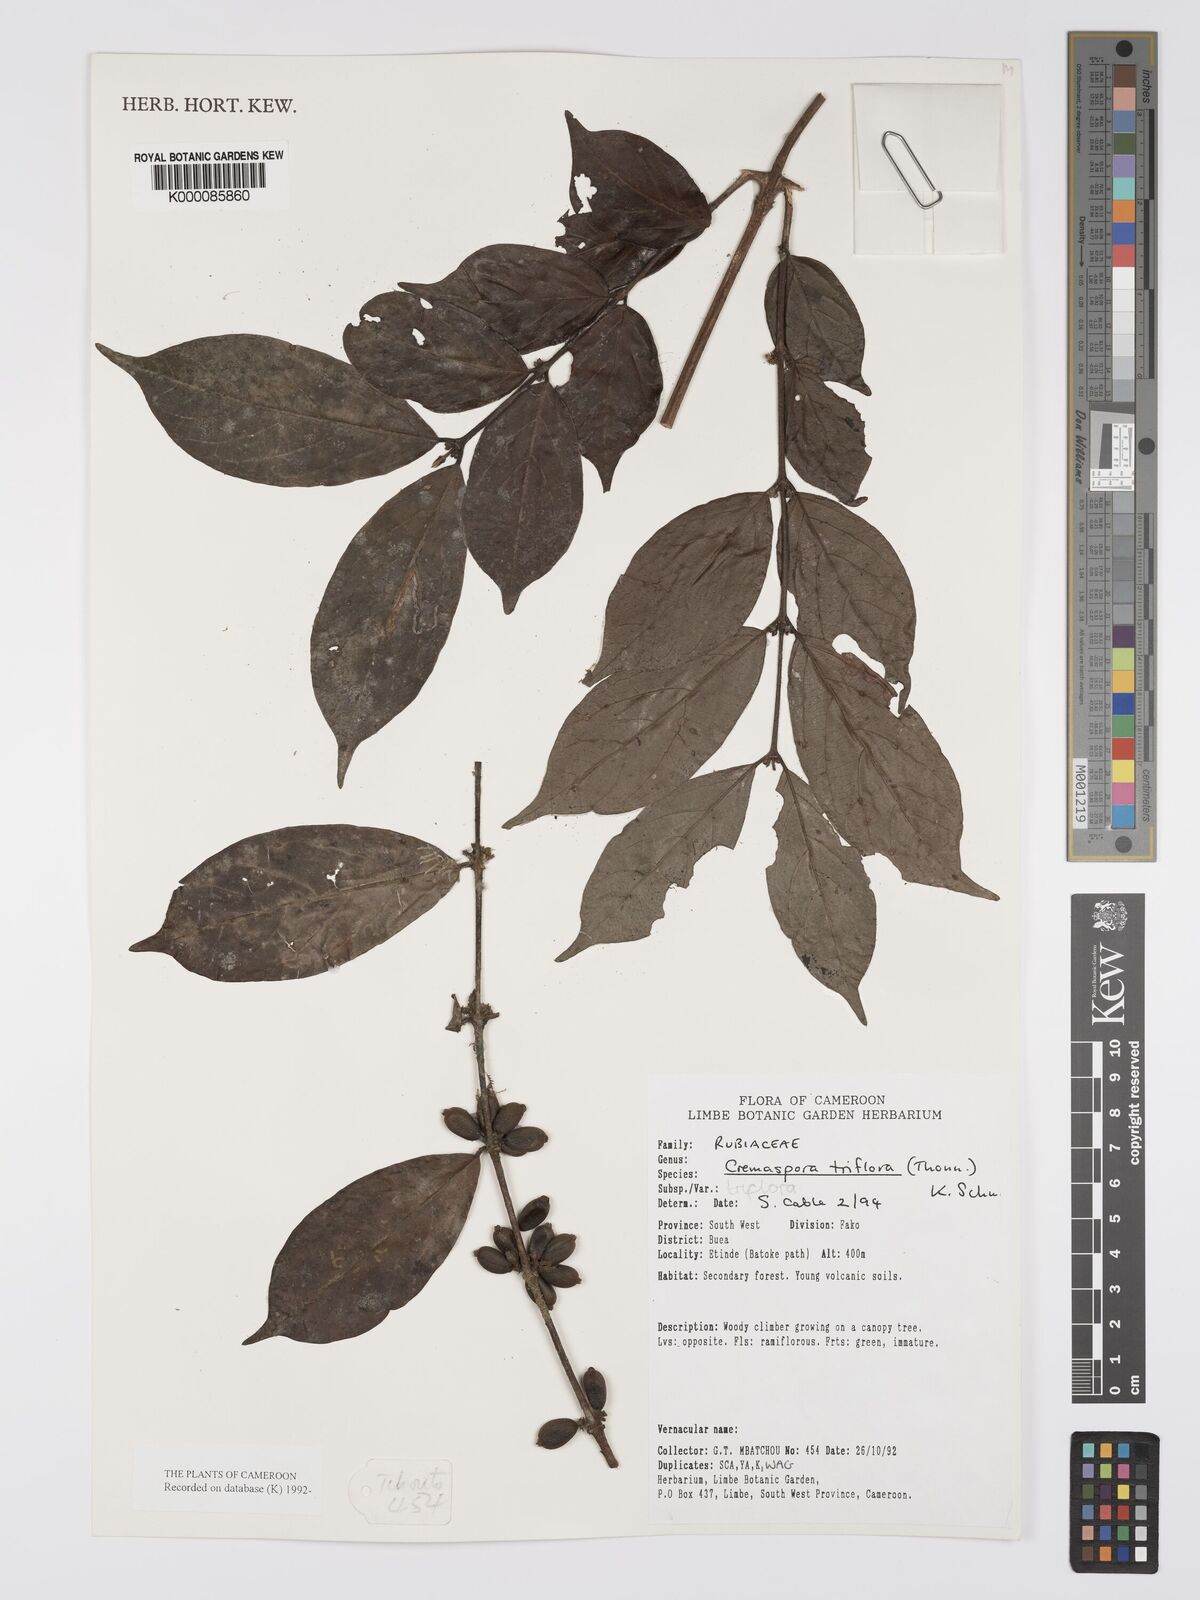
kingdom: Plantae
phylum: Tracheophyta
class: Magnoliopsida
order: Gentianales
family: Rubiaceae
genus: Cremaspora
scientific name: Cremaspora triflora
